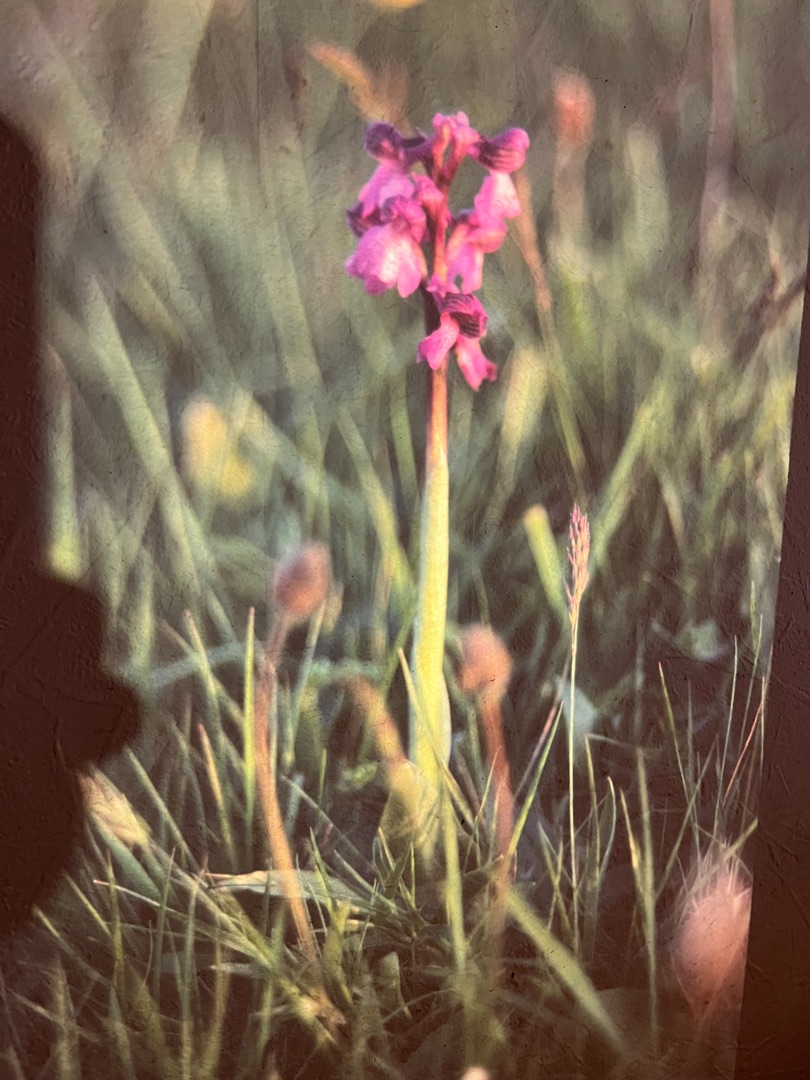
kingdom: Plantae
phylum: Tracheophyta
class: Liliopsida
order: Asparagales
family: Orchidaceae
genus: Anacamptis
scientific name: Anacamptis morio
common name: Salepgøgeurt
